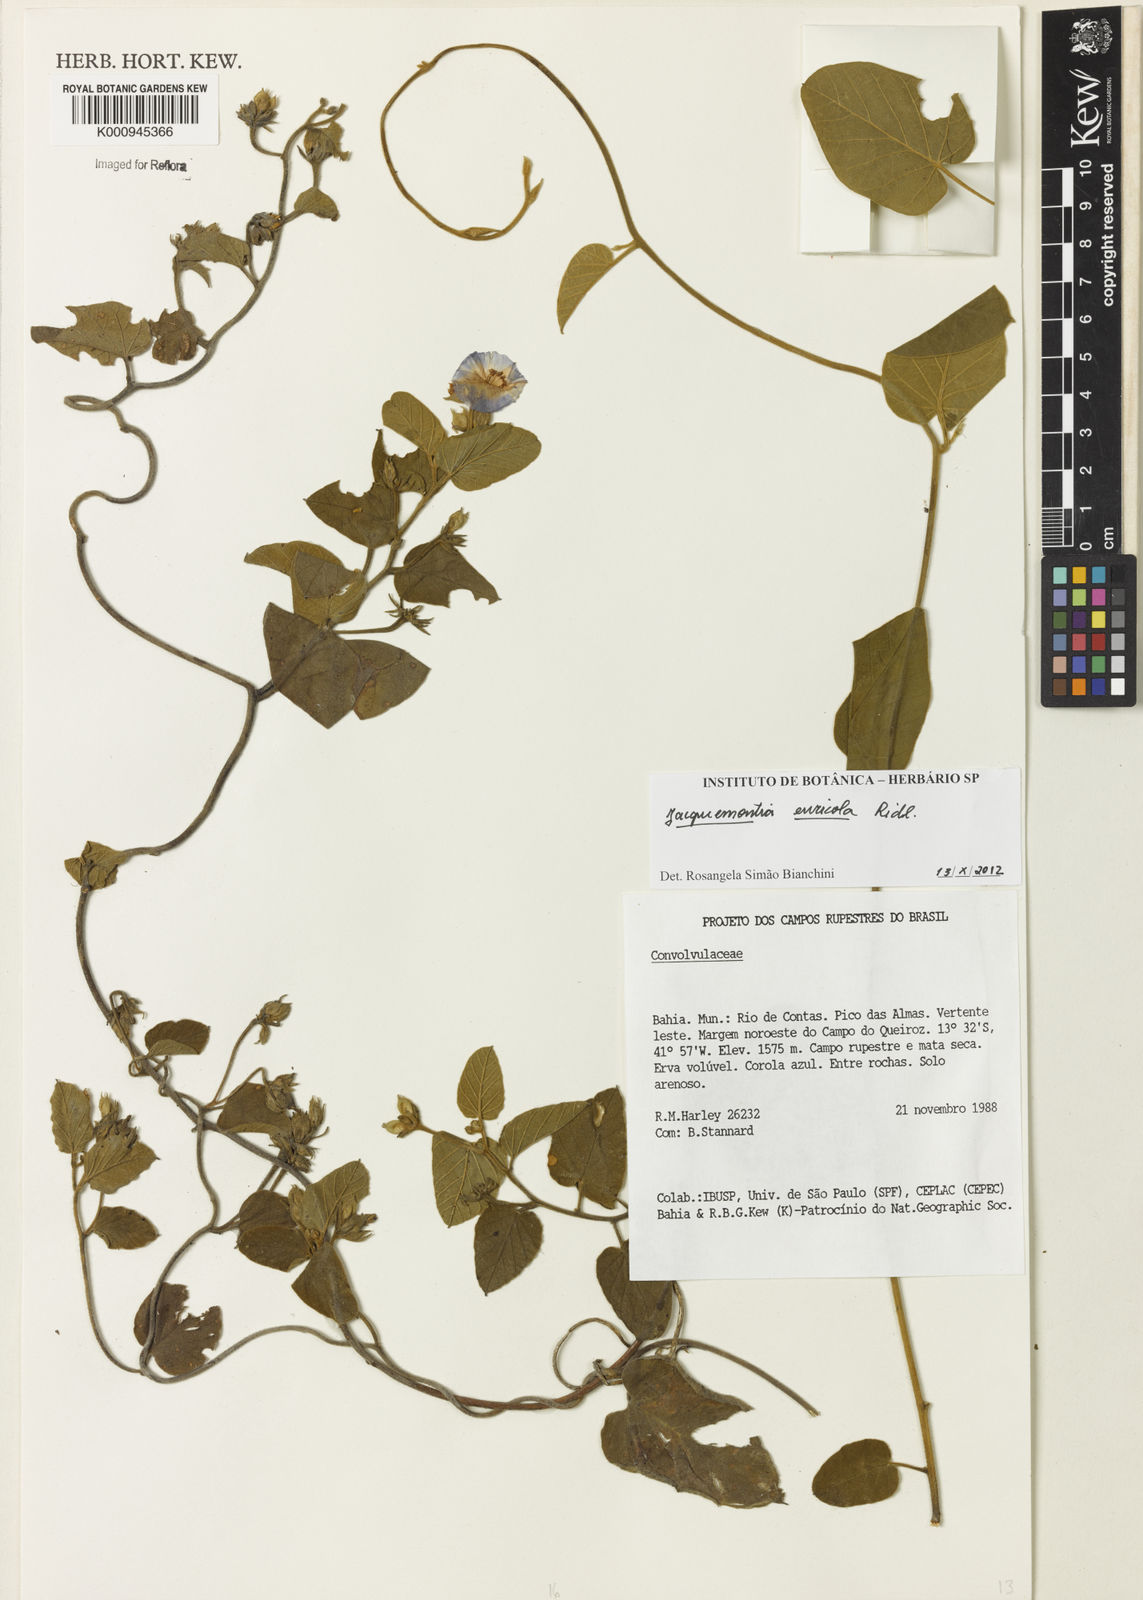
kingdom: Plantae
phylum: Tracheophyta
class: Magnoliopsida
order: Solanales
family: Convolvulaceae
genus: Jacquemontia
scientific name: Jacquemontia euricola
